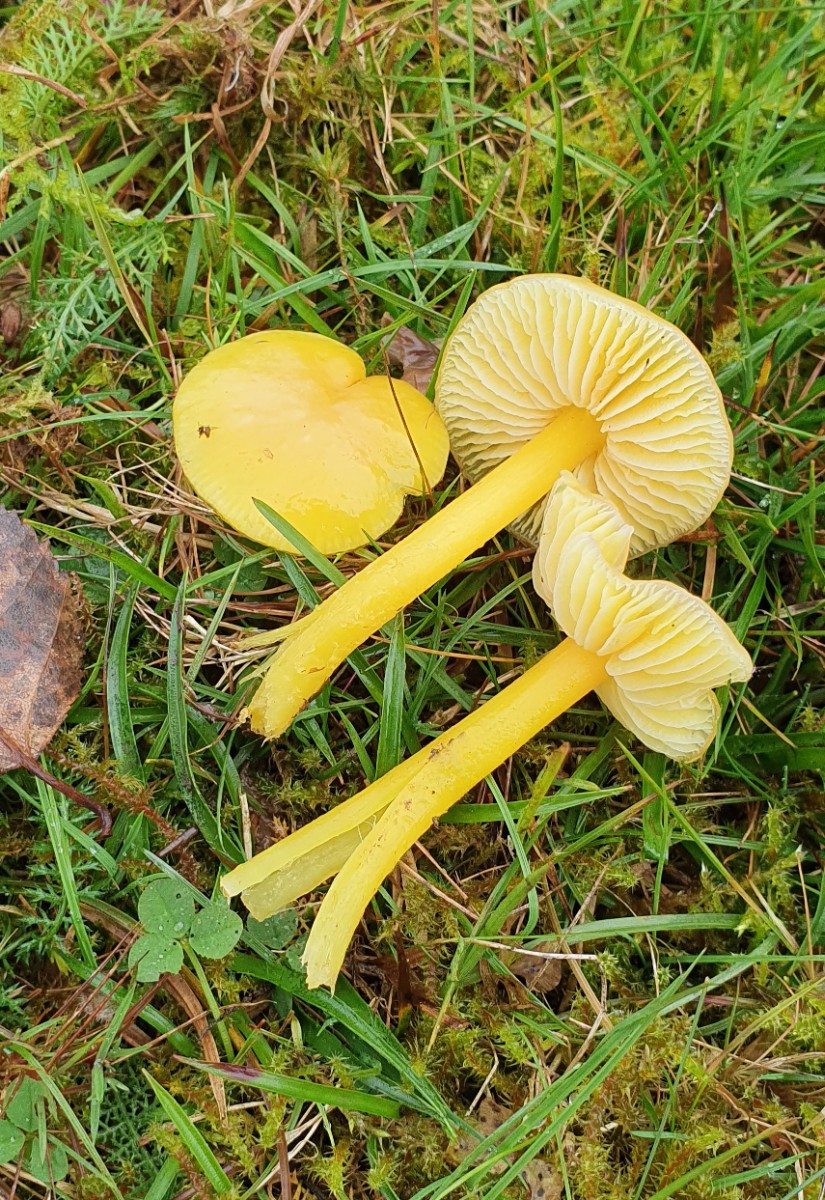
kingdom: Fungi
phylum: Basidiomycota
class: Agaricomycetes
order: Agaricales
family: Hygrophoraceae
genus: Hygrocybe
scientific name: Hygrocybe ceracea
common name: voksgul vokshat
